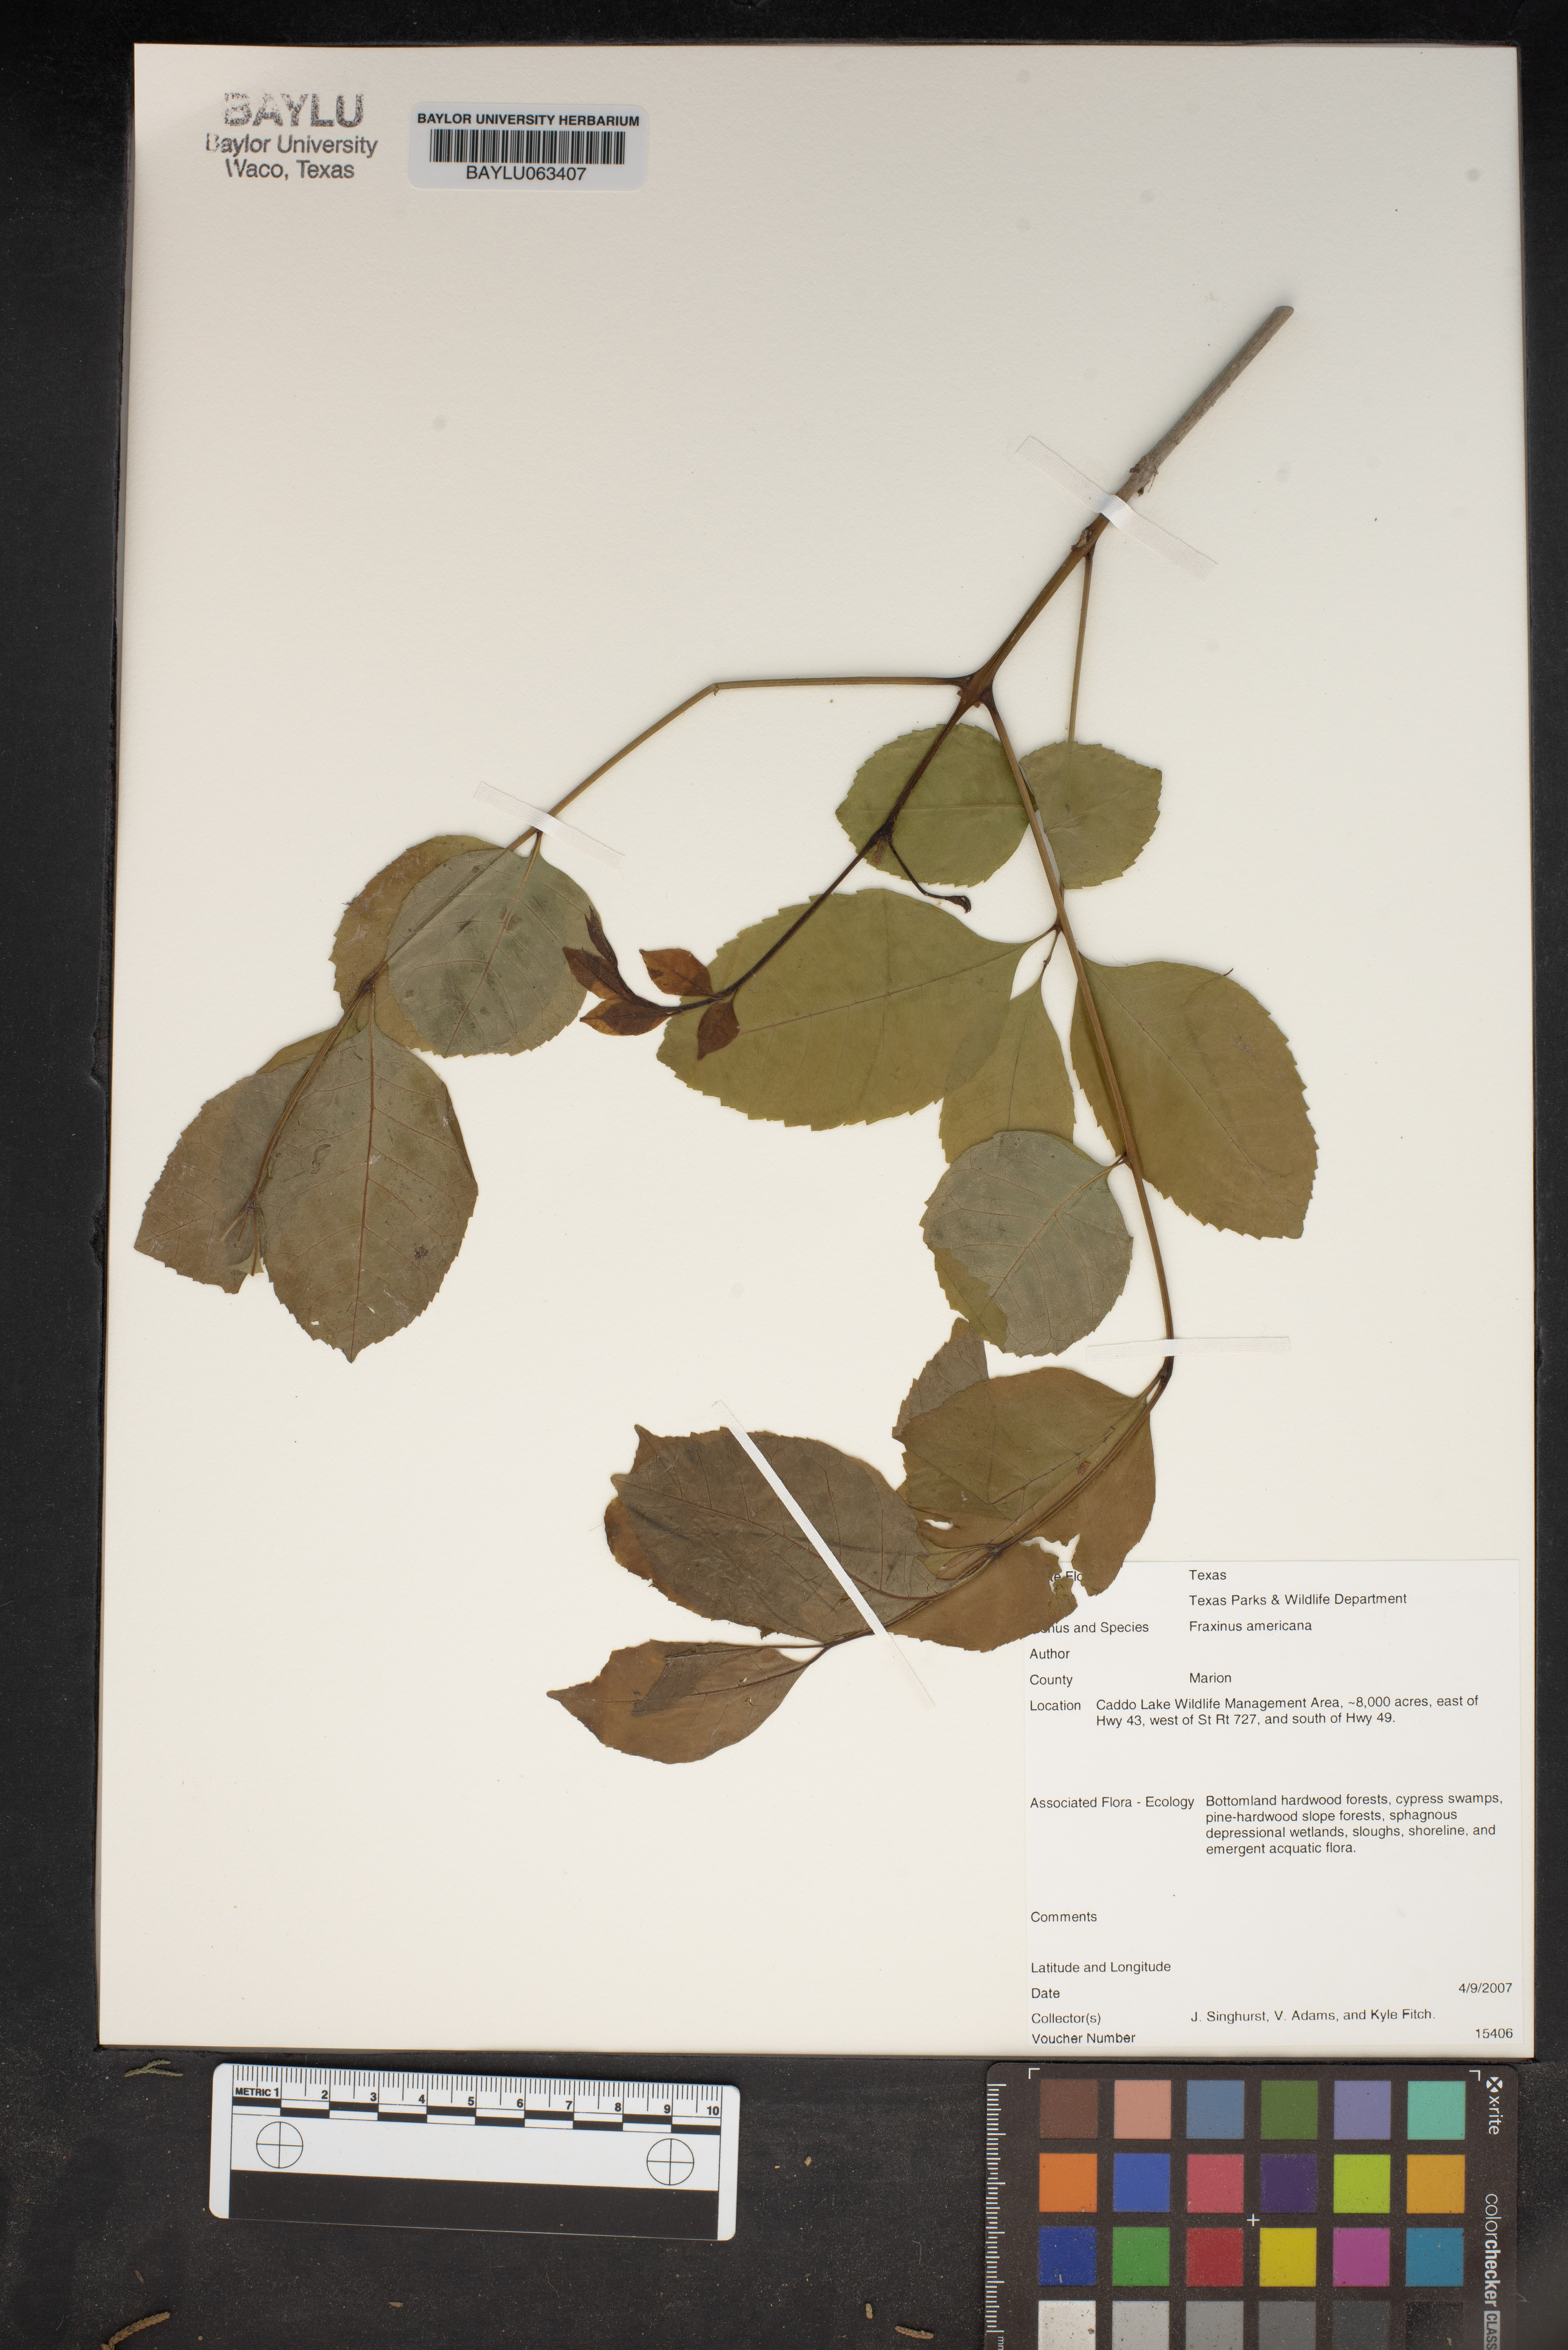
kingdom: Plantae
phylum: Tracheophyta
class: Magnoliopsida
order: Lamiales
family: Oleaceae
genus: Fraxinus
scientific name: Fraxinus americana
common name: White ash
